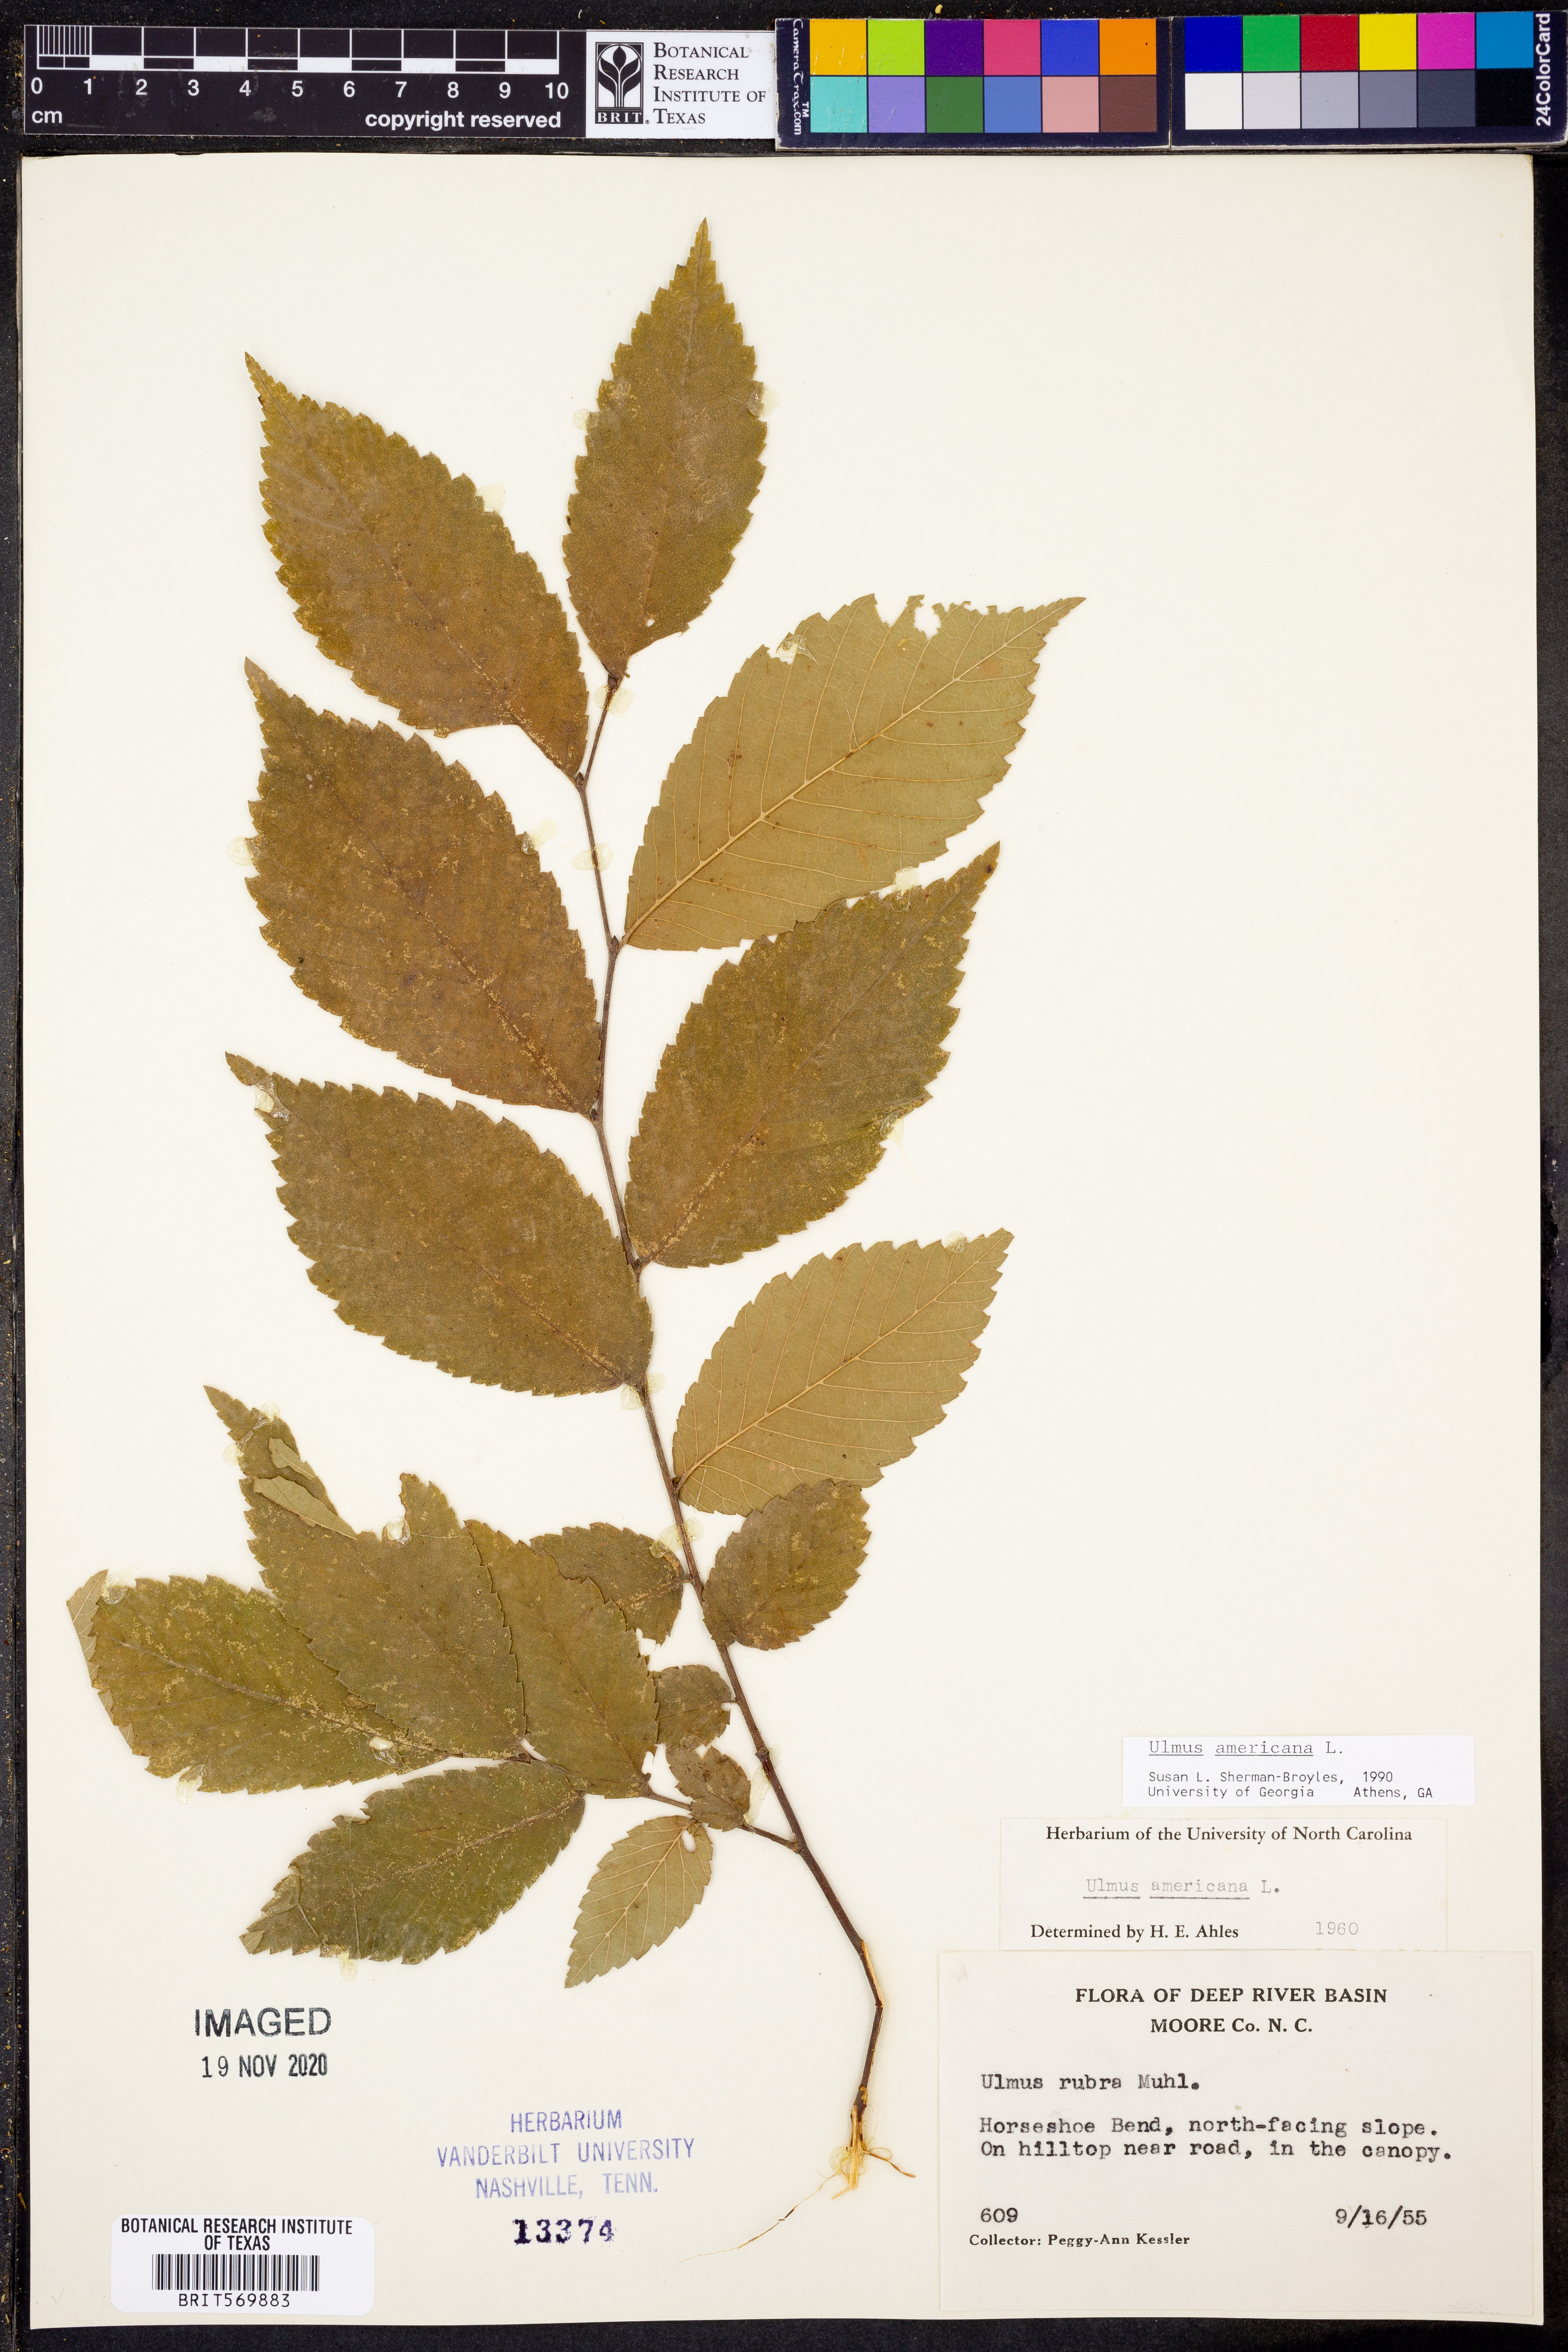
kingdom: Plantae
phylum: Tracheophyta
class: Magnoliopsida
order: Rosales
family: Ulmaceae
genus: Ulmus
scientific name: Ulmus americana
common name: American elm
